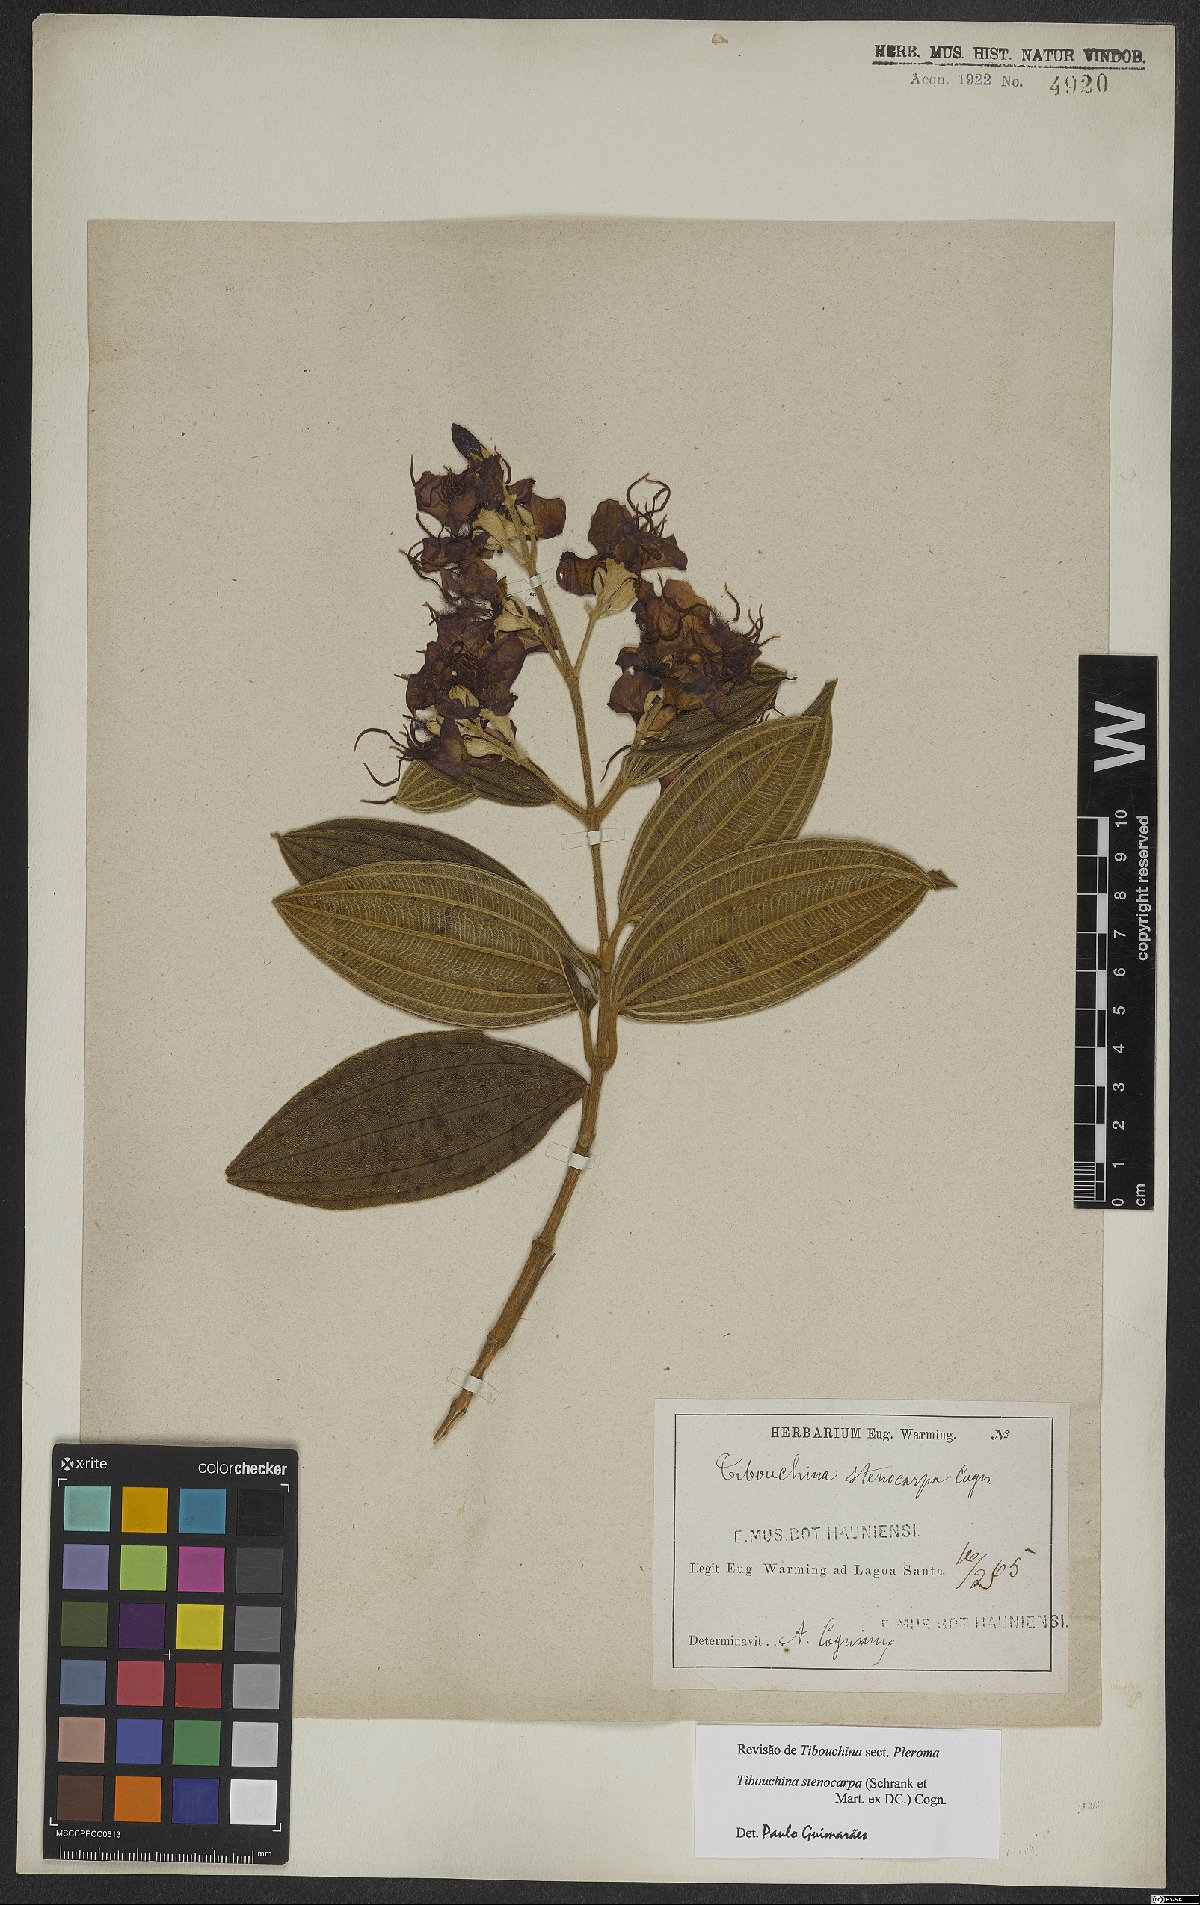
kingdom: Plantae
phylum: Tracheophyta
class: Magnoliopsida
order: Myrtales
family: Melastomataceae
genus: Pleroma
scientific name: Pleroma stenocarpum
